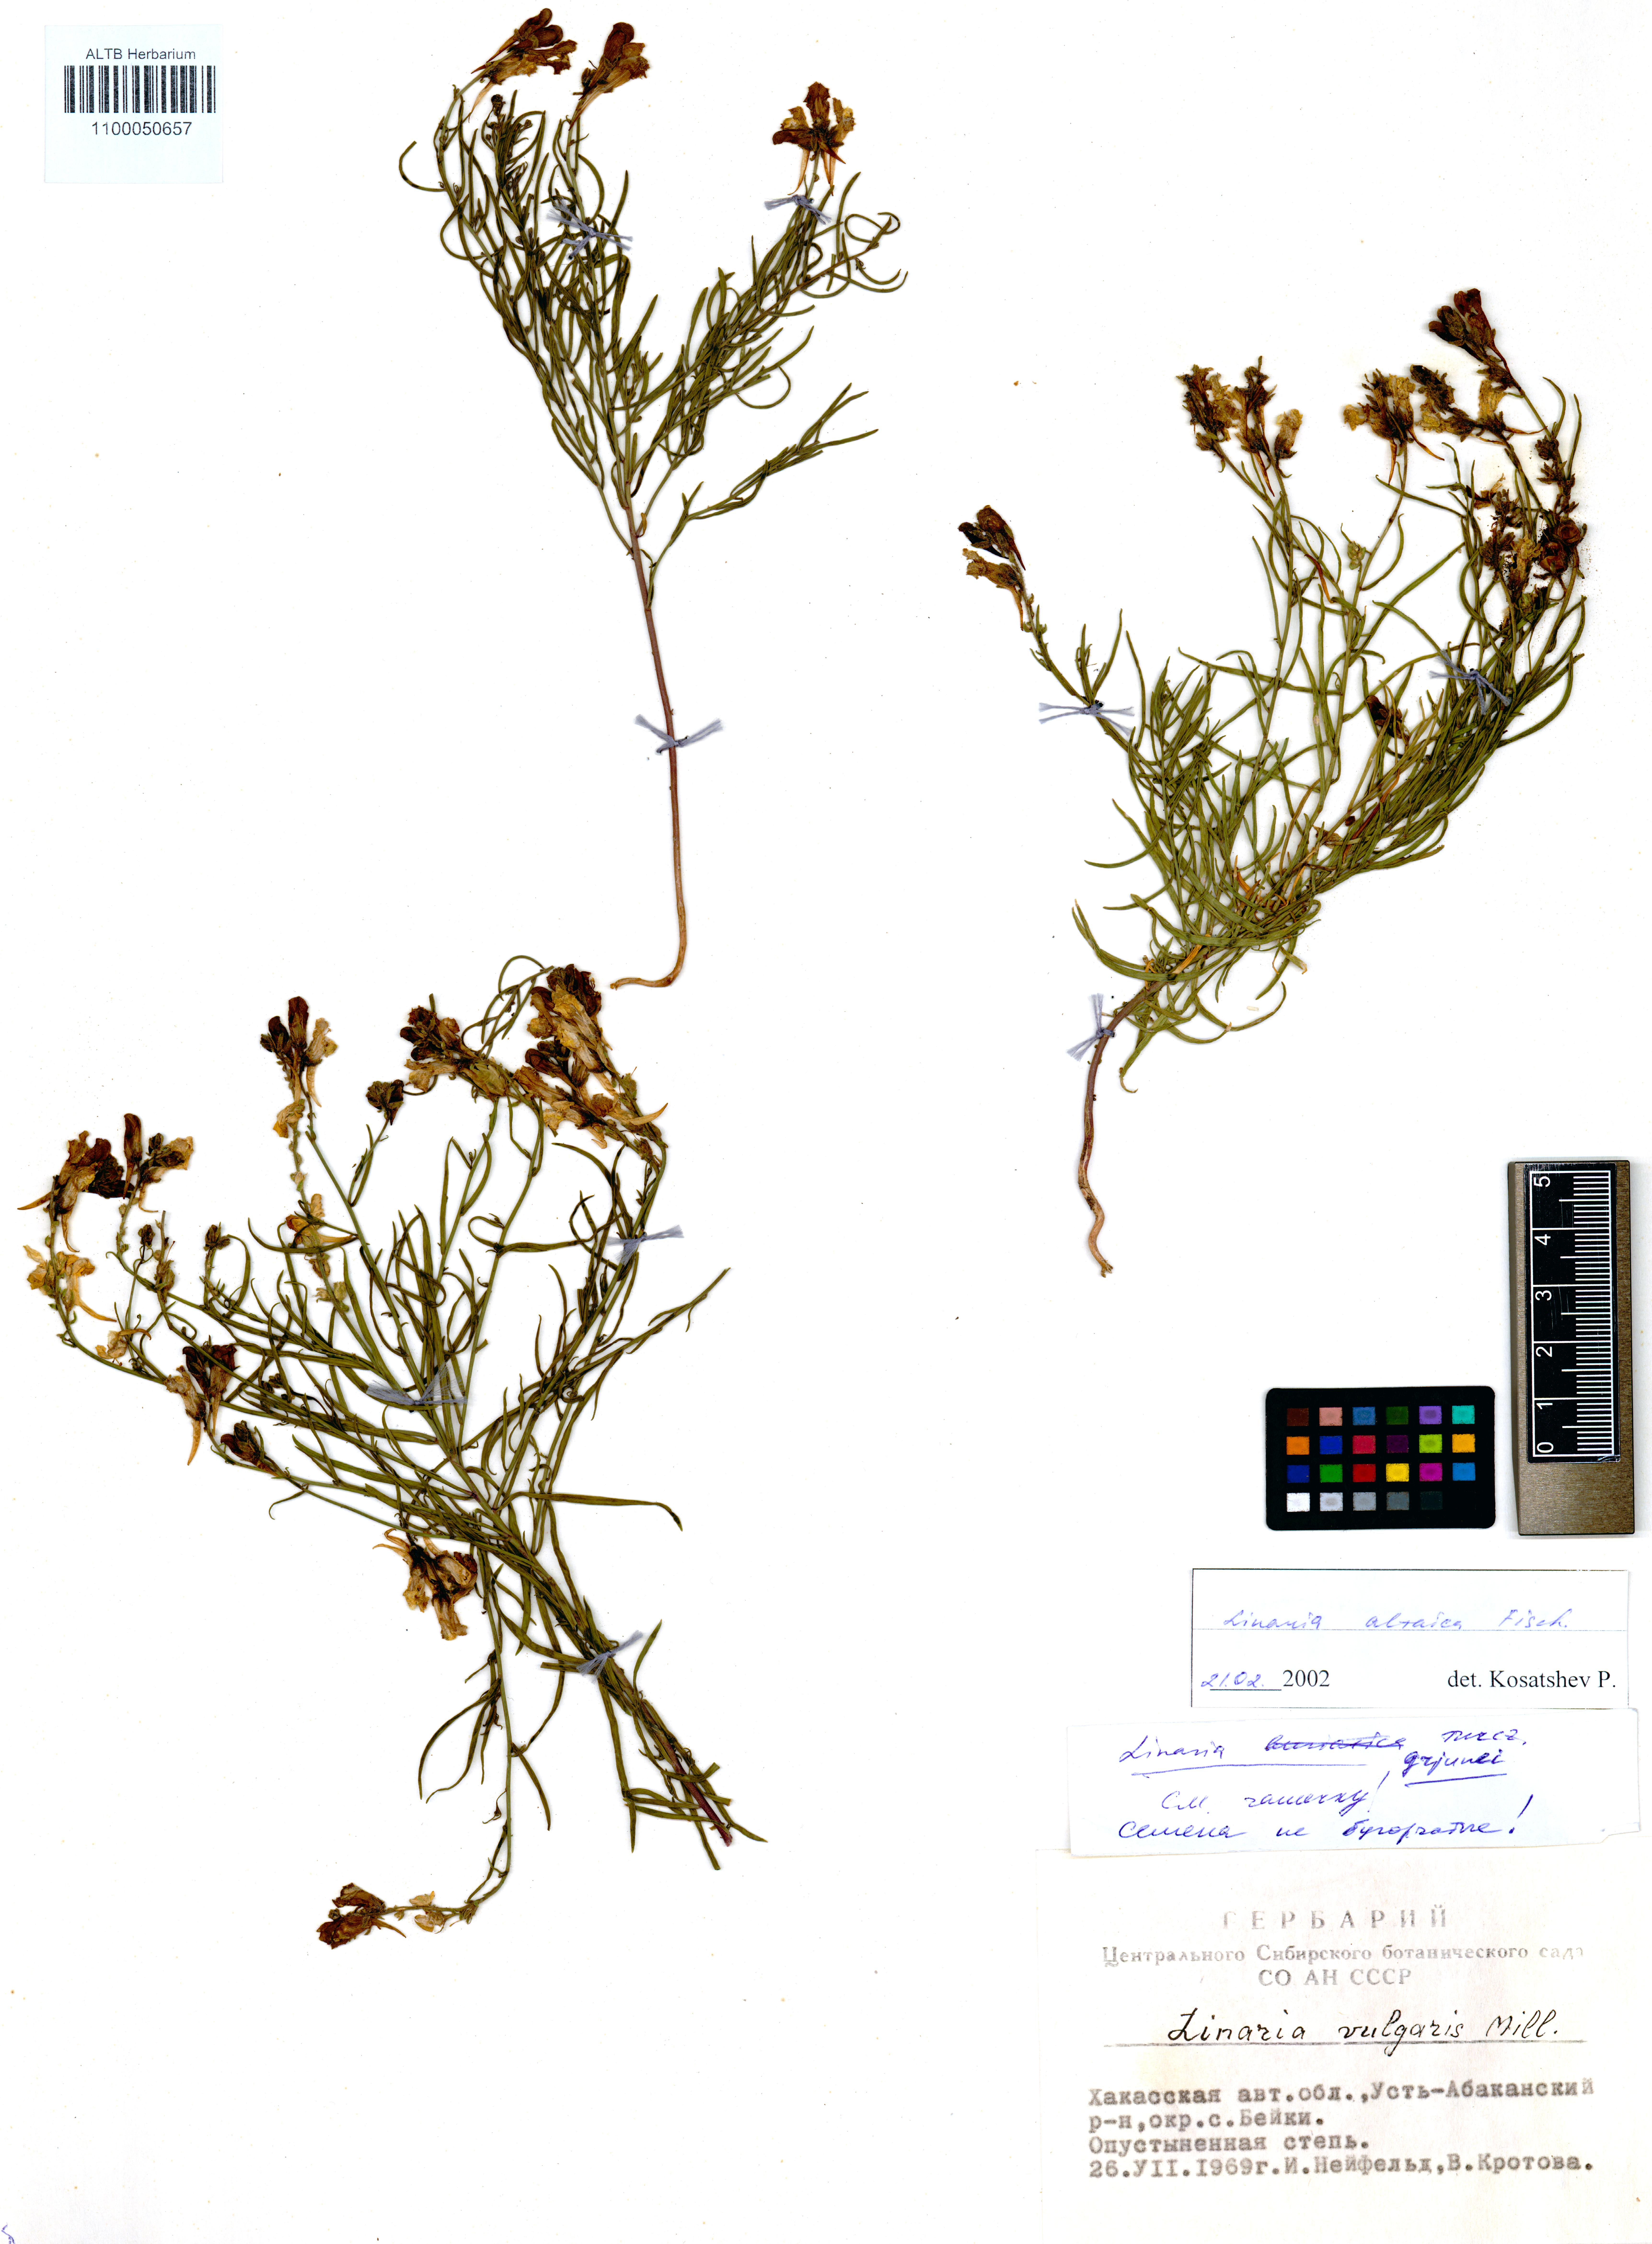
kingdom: Plantae
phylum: Tracheophyta
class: Magnoliopsida
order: Lamiales
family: Plantaginaceae
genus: Linaria
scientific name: Linaria altaica
